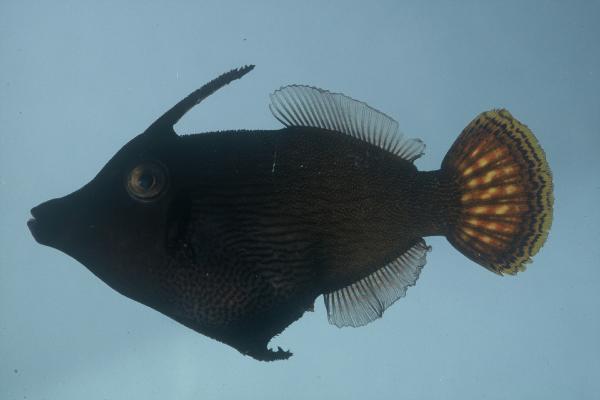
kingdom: Animalia
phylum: Chordata
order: Tetraodontiformes
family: Monacanthidae
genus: Pervagor
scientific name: Pervagor janthinosoma
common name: Blackbar filefish
